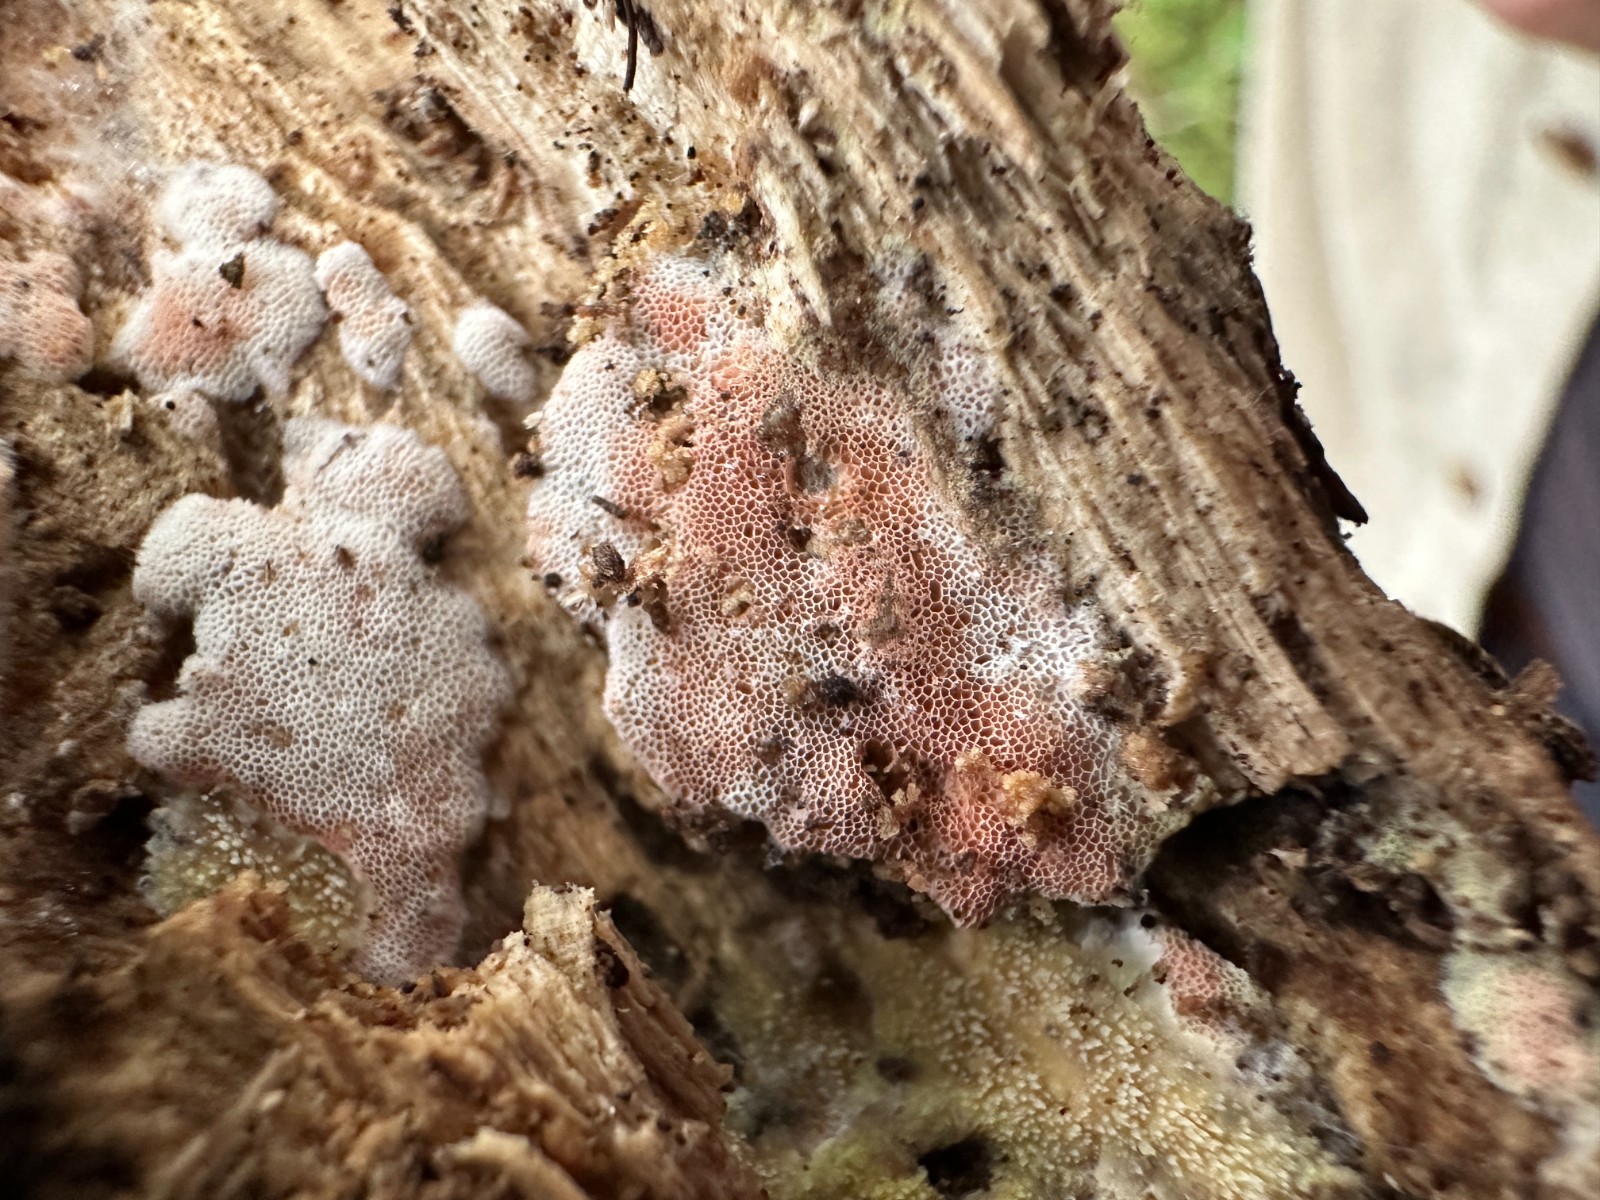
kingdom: Fungi
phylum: Basidiomycota
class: Agaricomycetes
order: Polyporales
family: Irpicaceae
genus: Ceriporia
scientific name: Ceriporia
